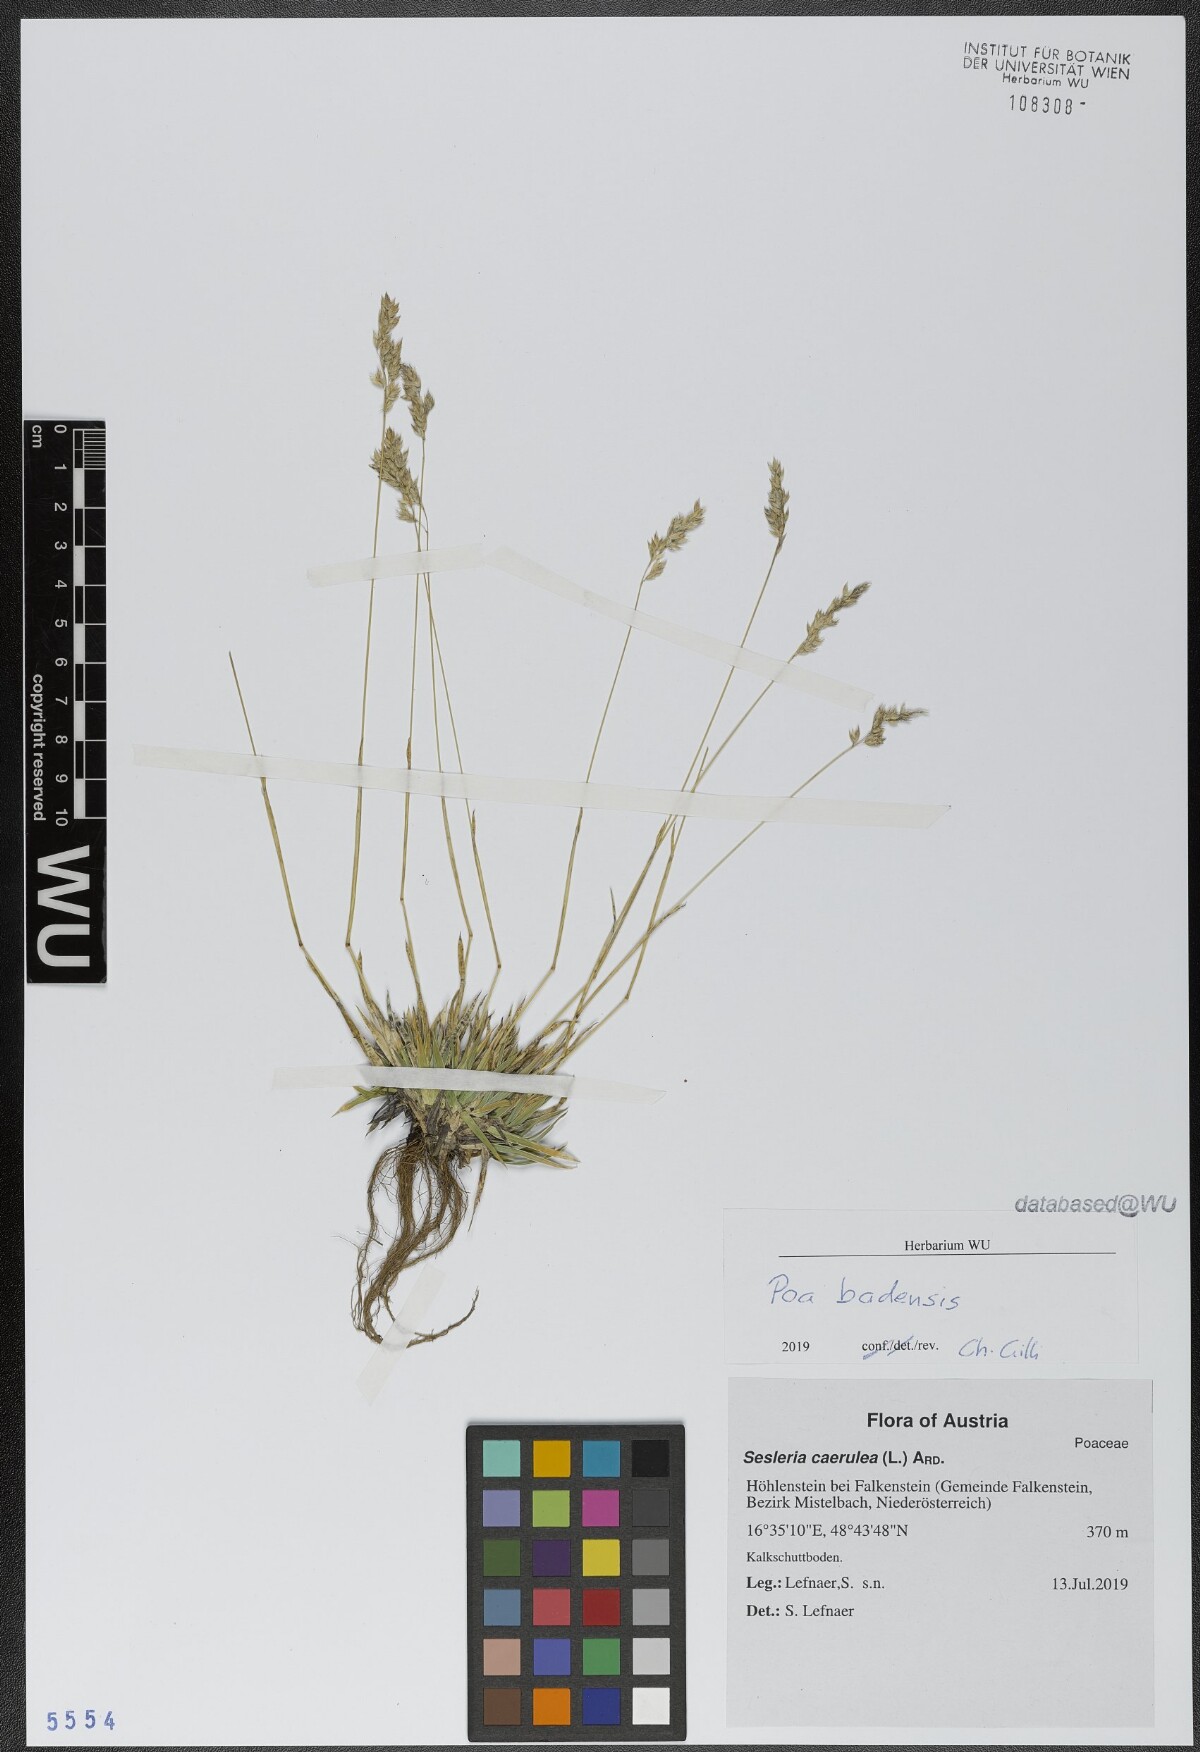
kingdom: Plantae
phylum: Tracheophyta
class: Liliopsida
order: Poales
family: Poaceae
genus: Poa
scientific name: Poa badensis
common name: Baden's bluegrass
